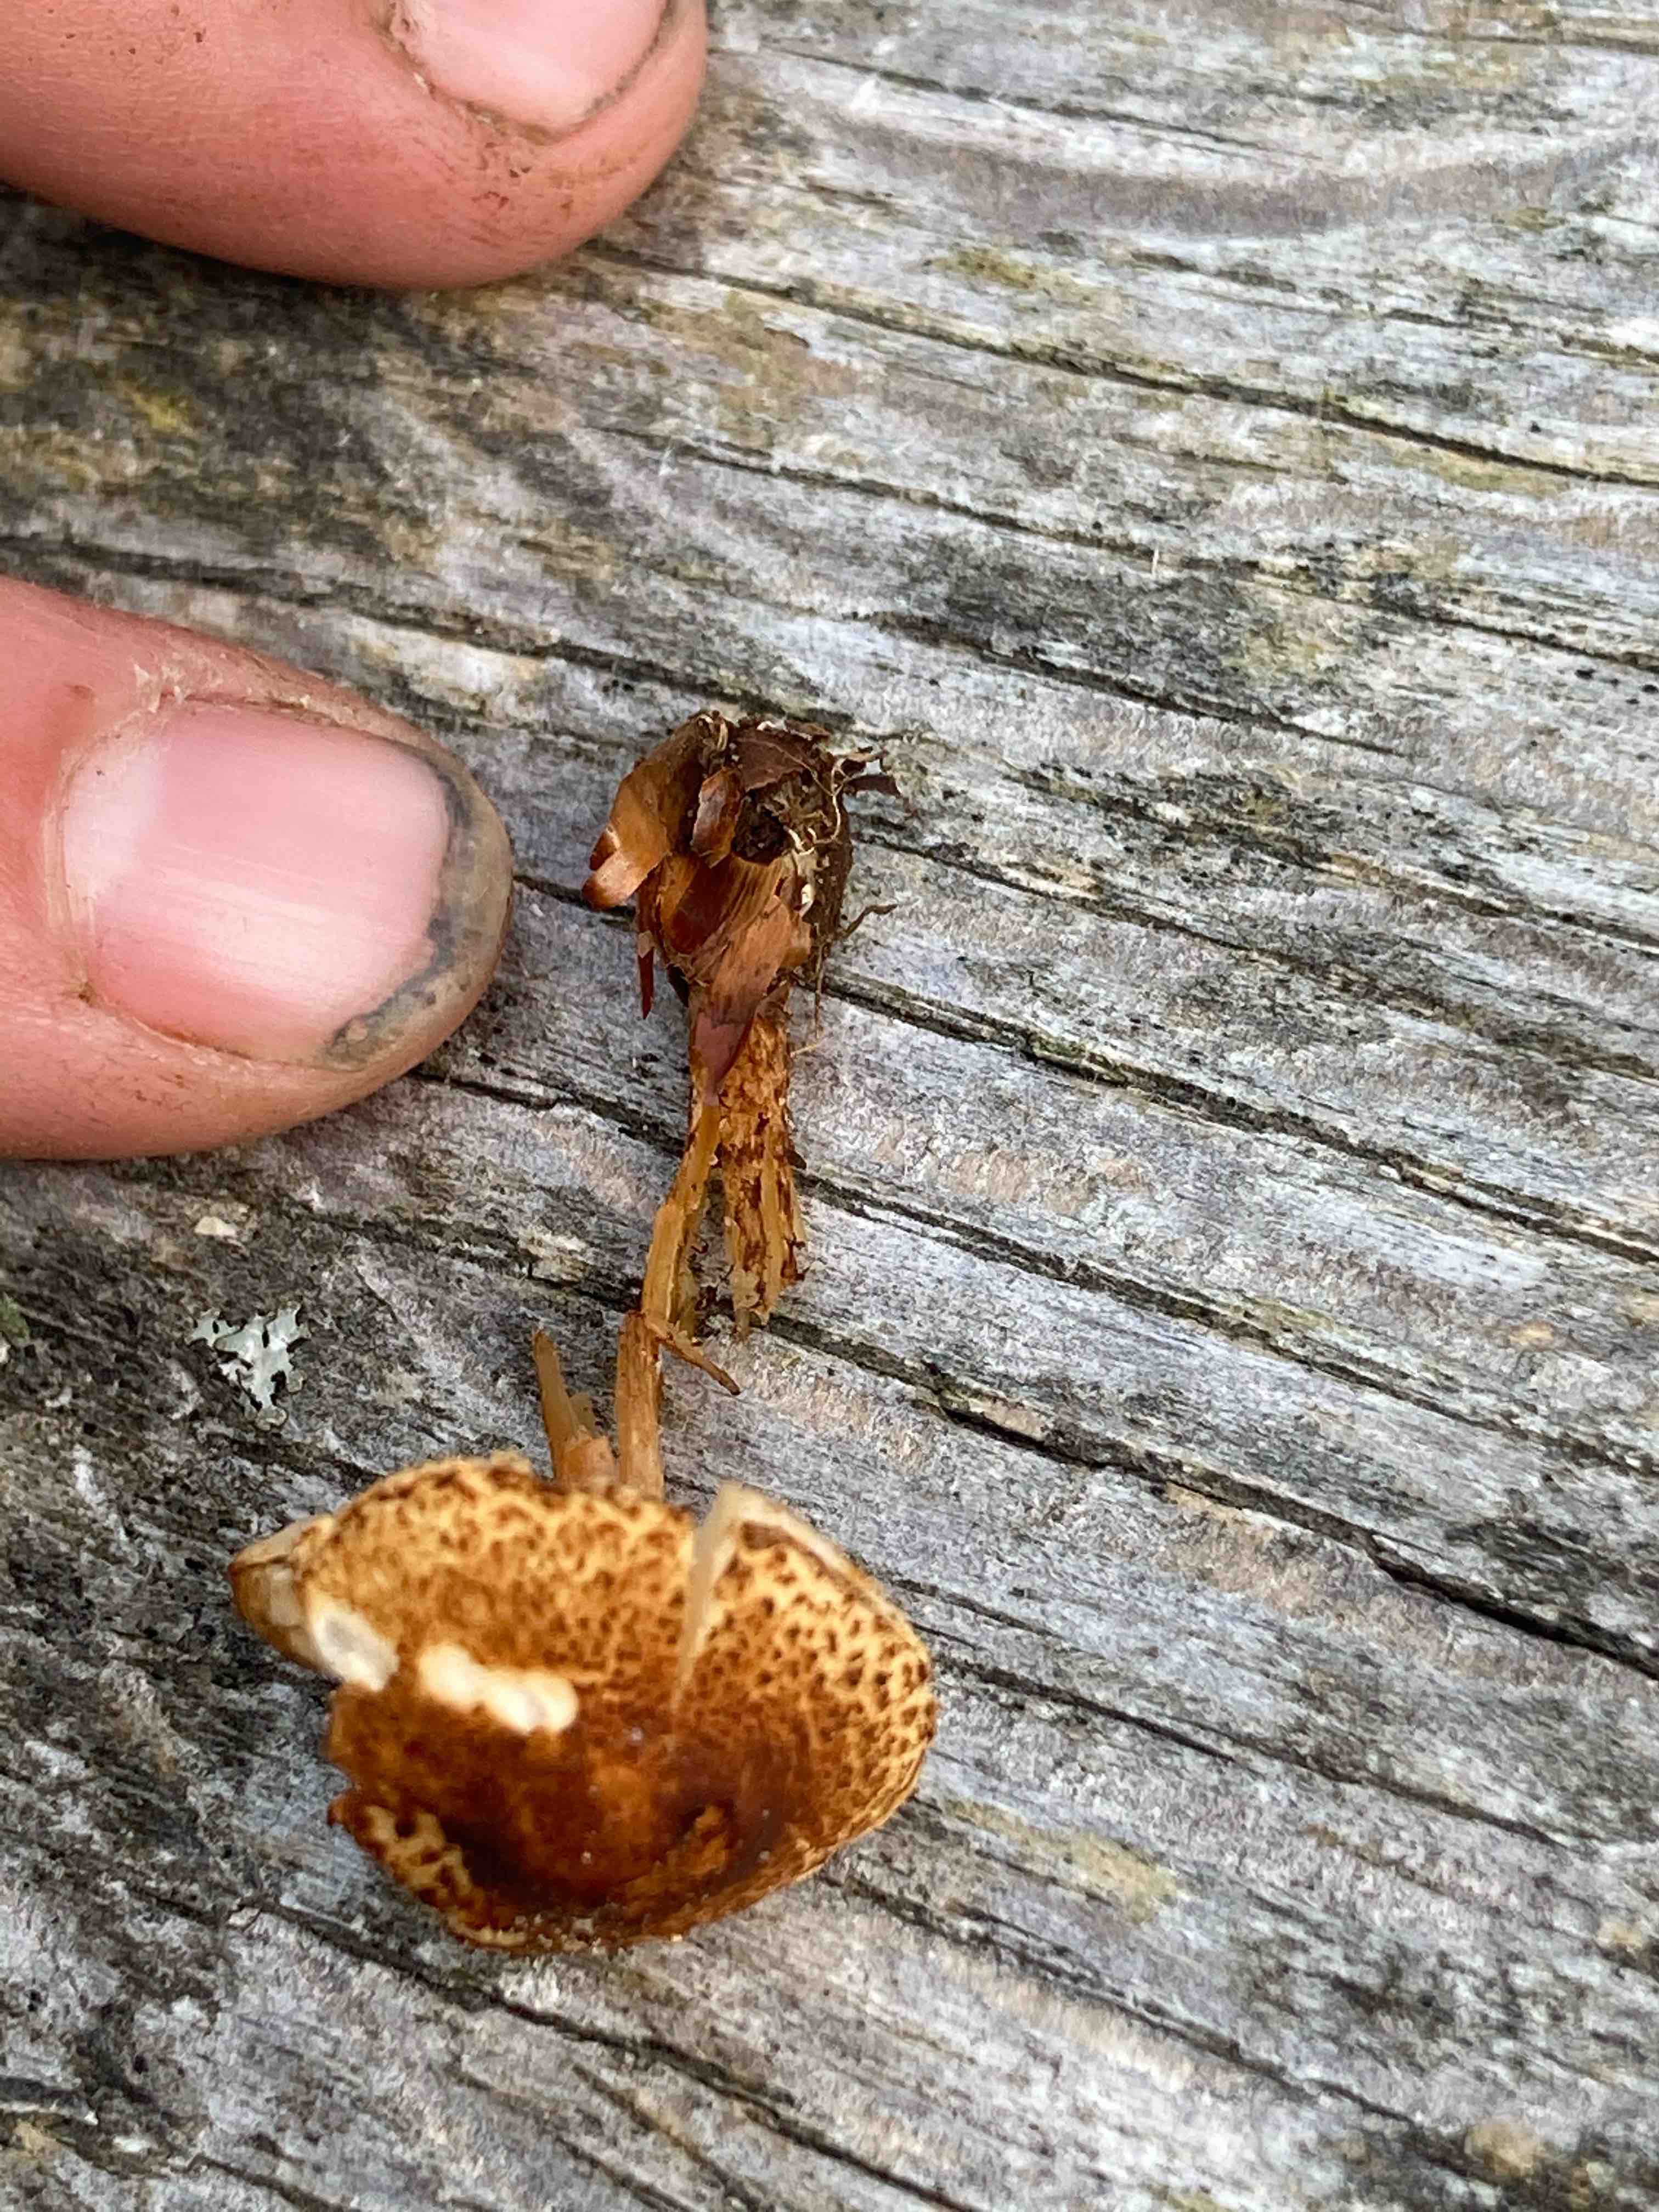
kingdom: Fungi
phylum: Basidiomycota
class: Agaricomycetes
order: Agaricales
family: Agaricaceae
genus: Lepiota
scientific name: Lepiota castanea
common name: kastaniebrun parasolhat
